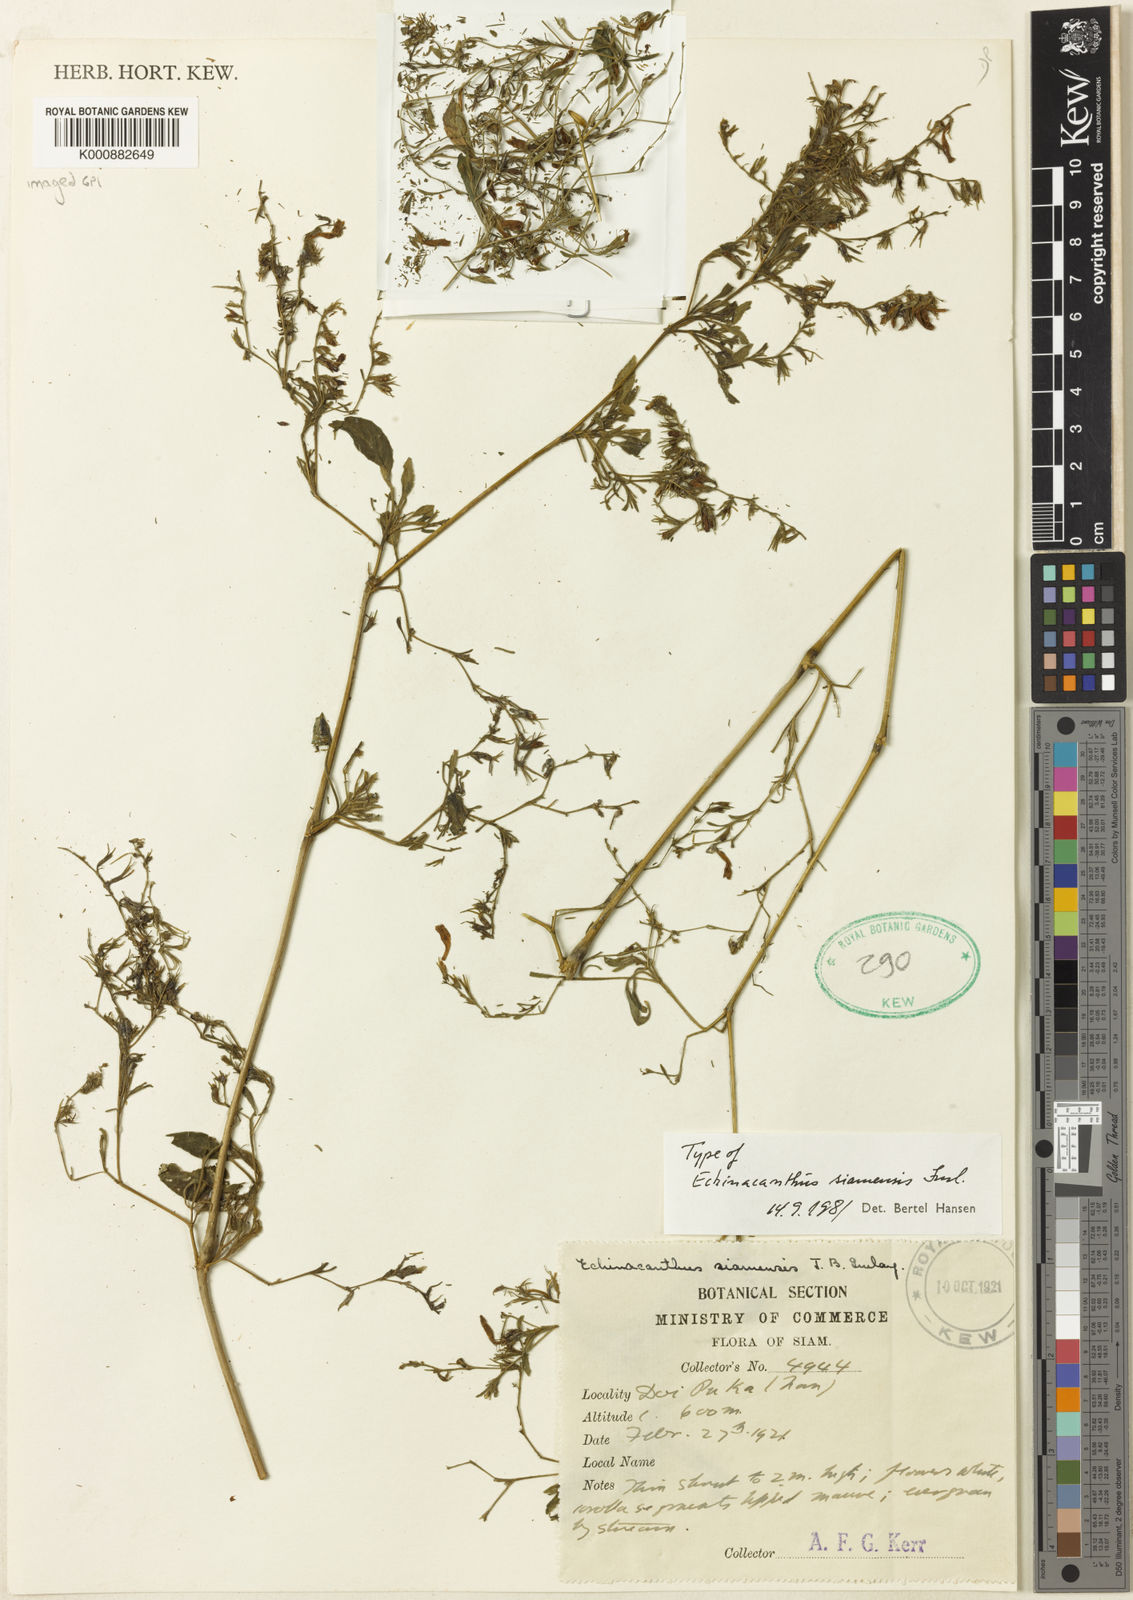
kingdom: Plantae
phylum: Tracheophyta
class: Magnoliopsida
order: Lamiales
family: Acanthaceae
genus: Strobilanthes
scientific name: Strobilanthes
